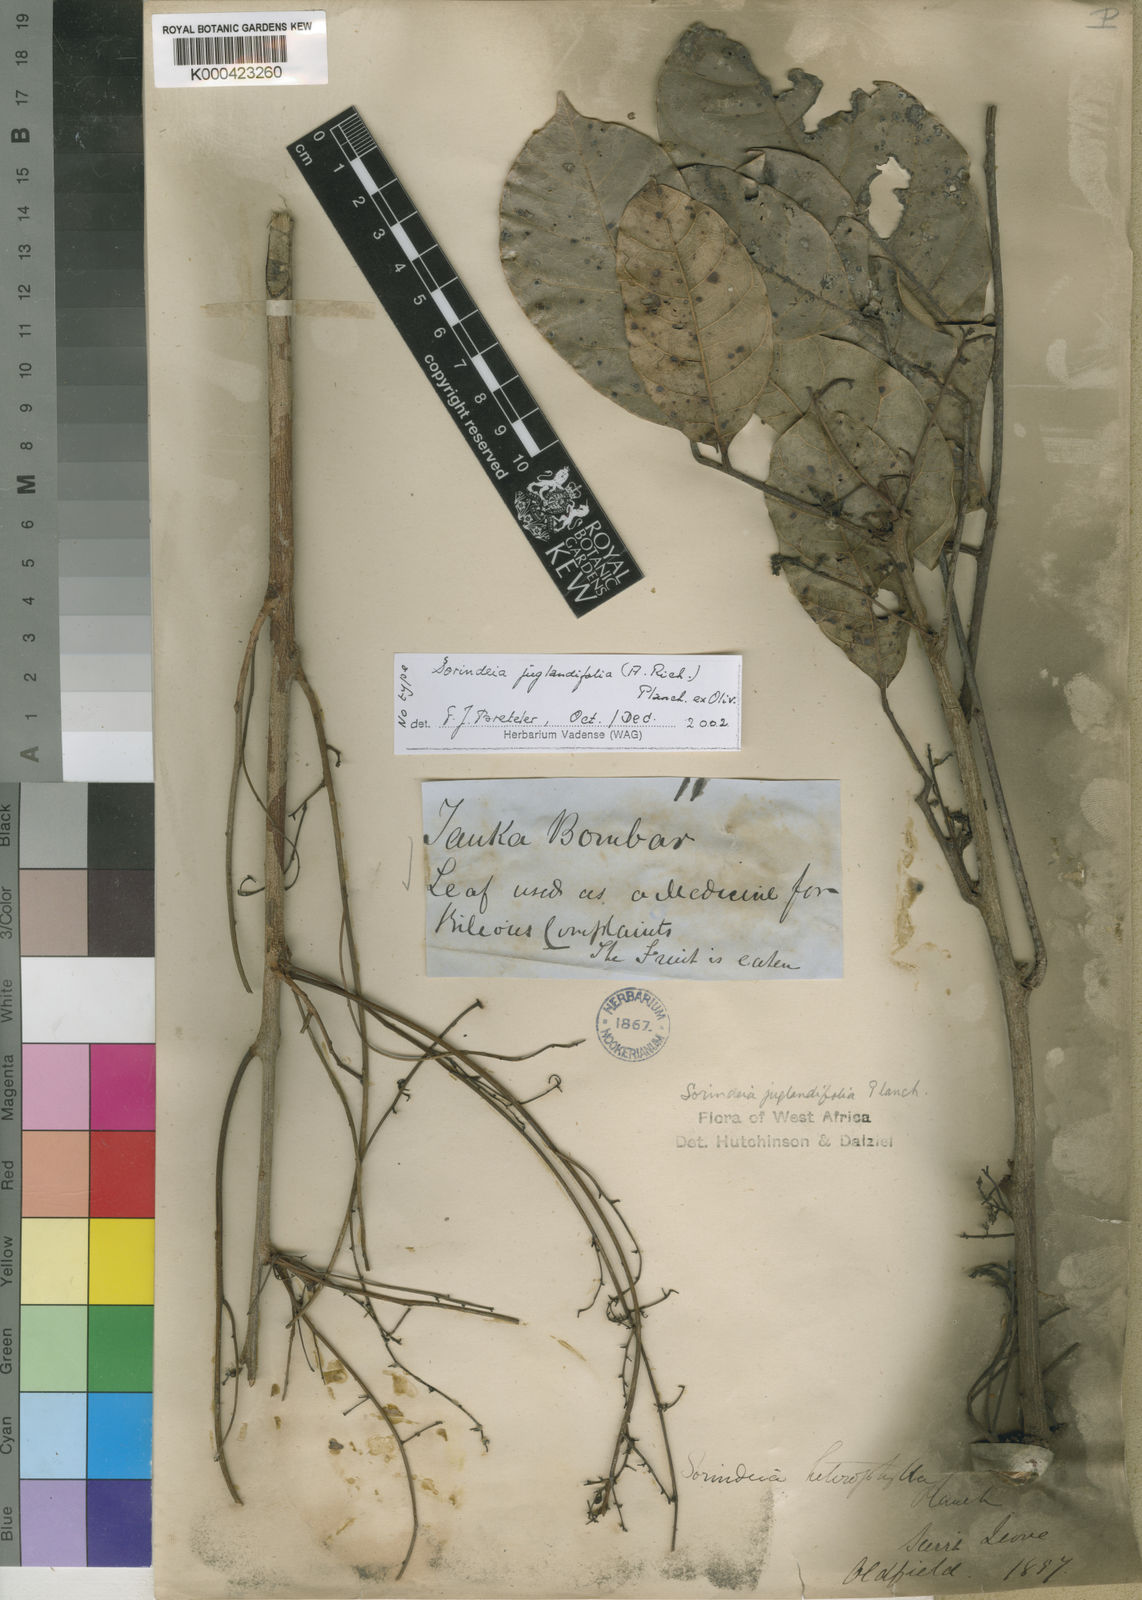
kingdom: Plantae
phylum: Tracheophyta
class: Magnoliopsida
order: Sapindales
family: Anacardiaceae
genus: Sorindeia
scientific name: Sorindeia juglandifolia
